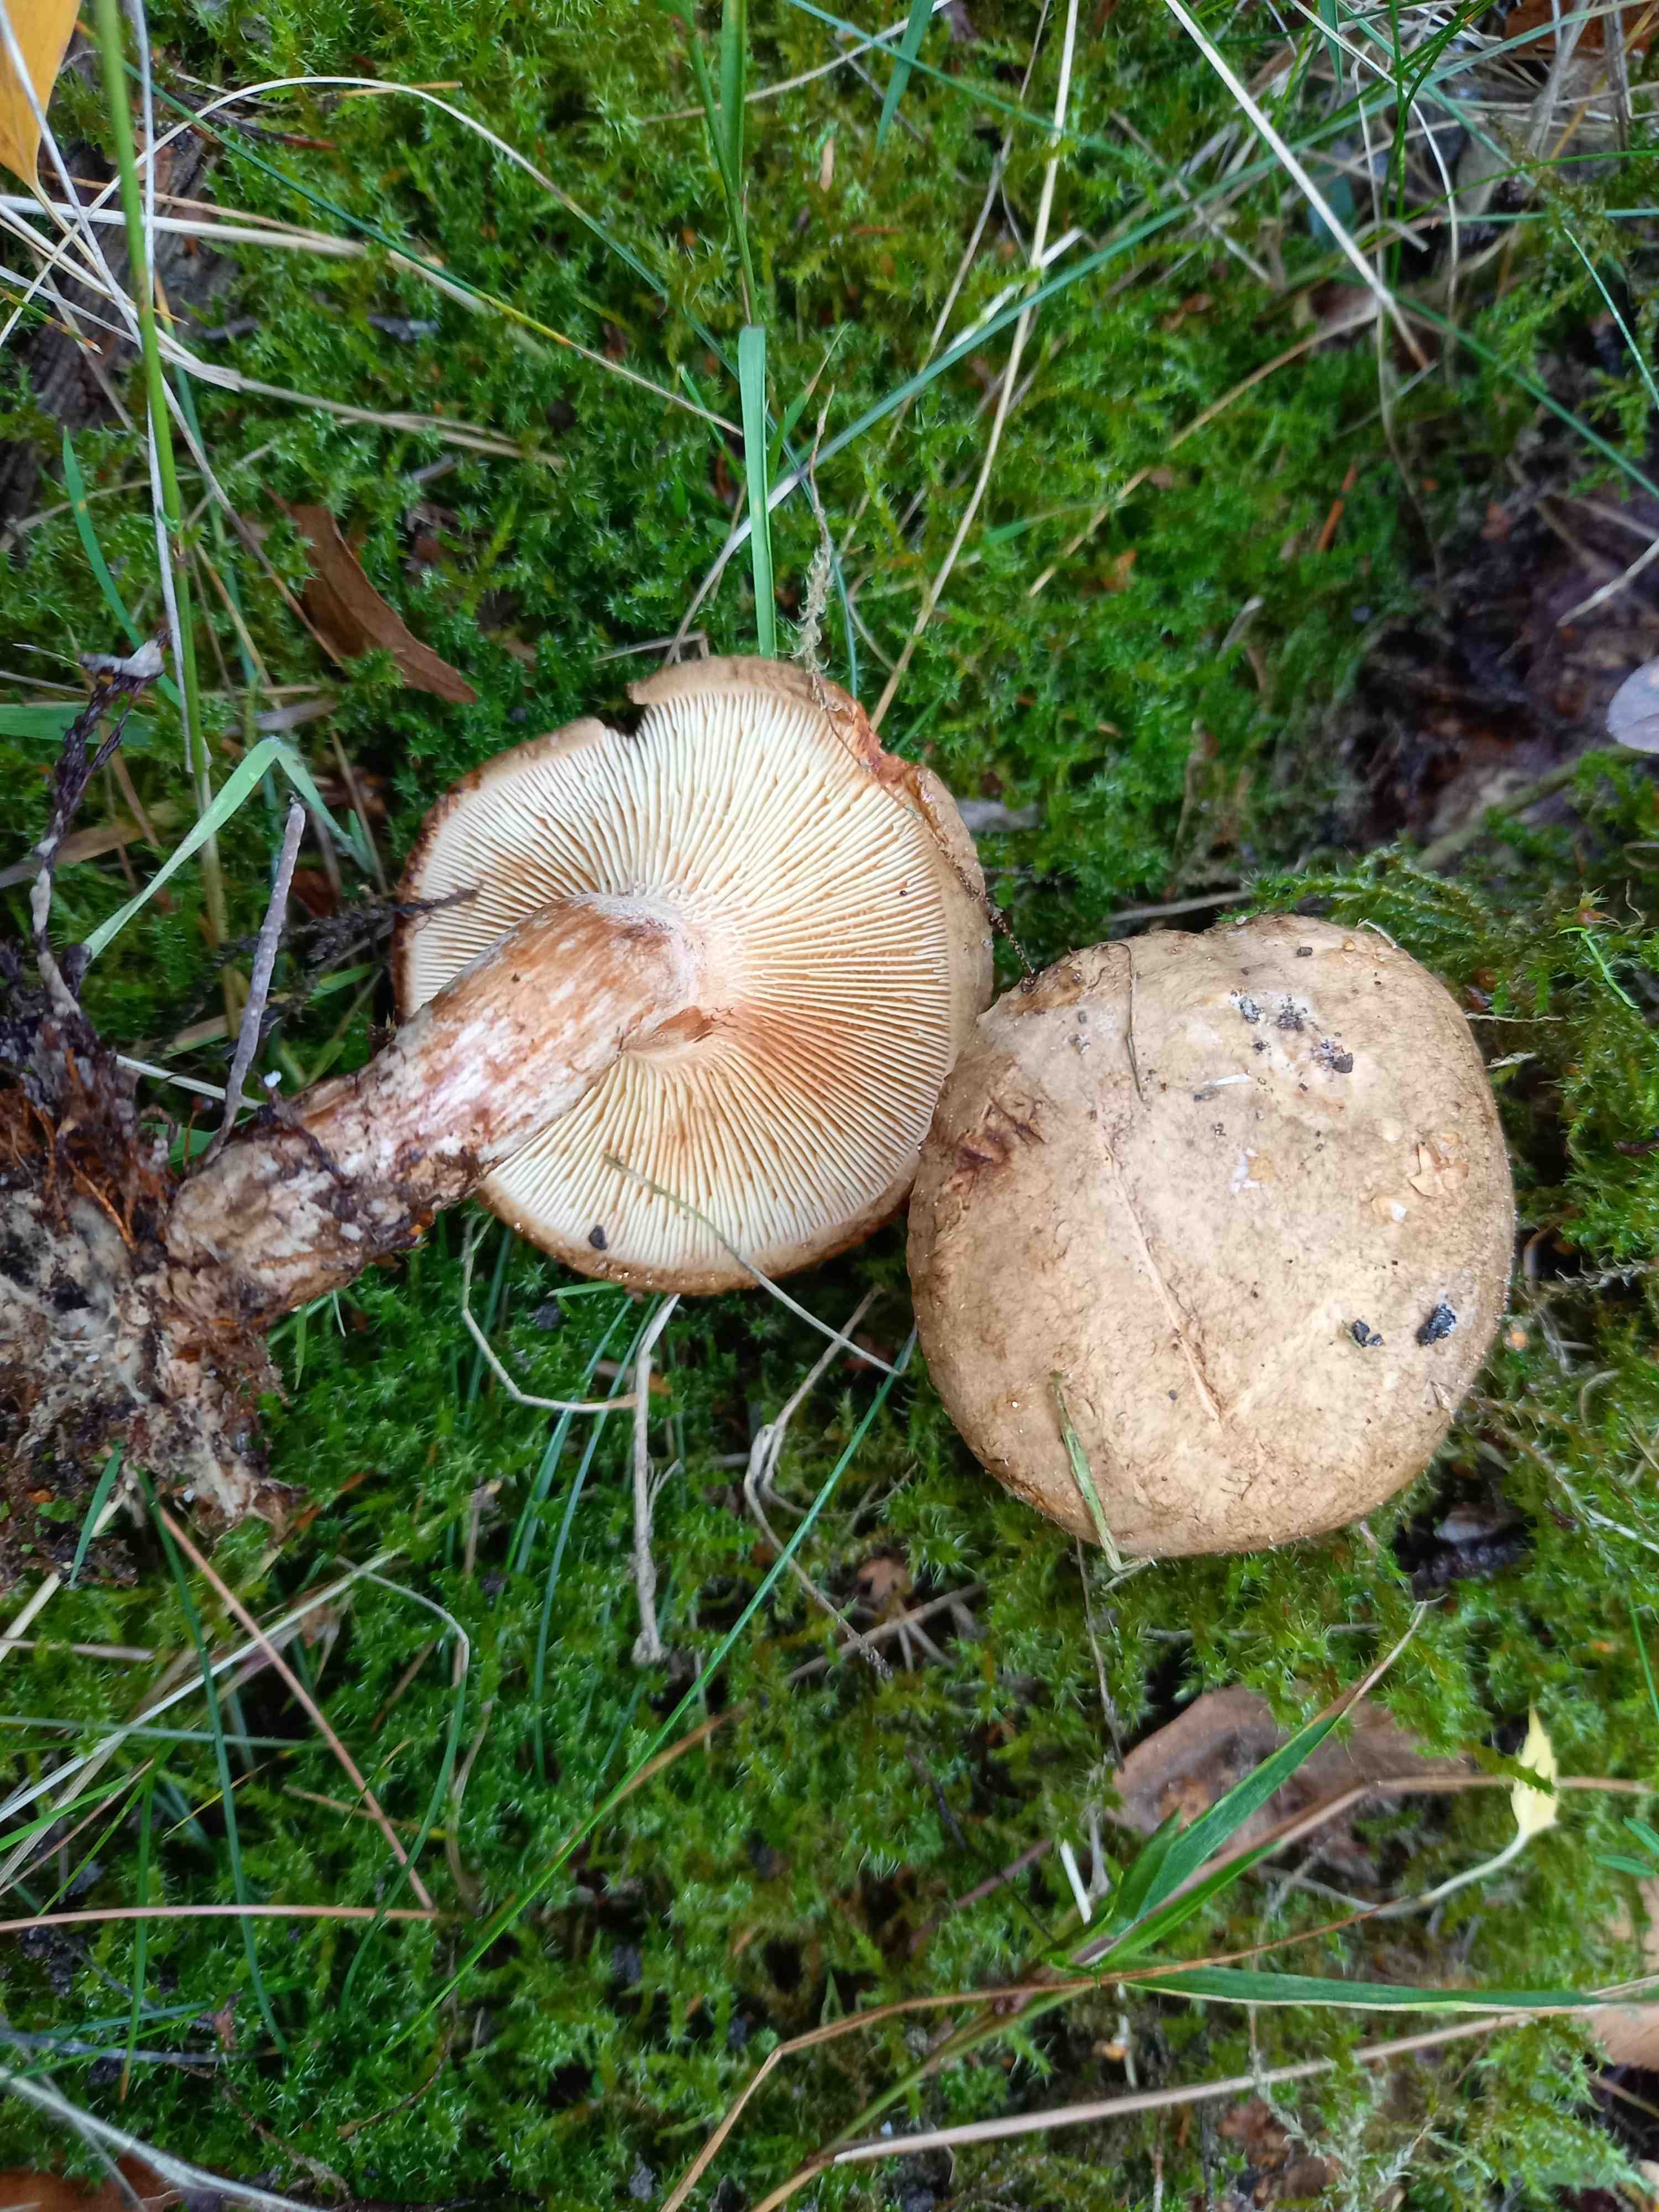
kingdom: Fungi
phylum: Basidiomycota
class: Agaricomycetes
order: Boletales
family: Paxillaceae
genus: Paxillus
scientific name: Paxillus involutus
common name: almindelig netbladhat
